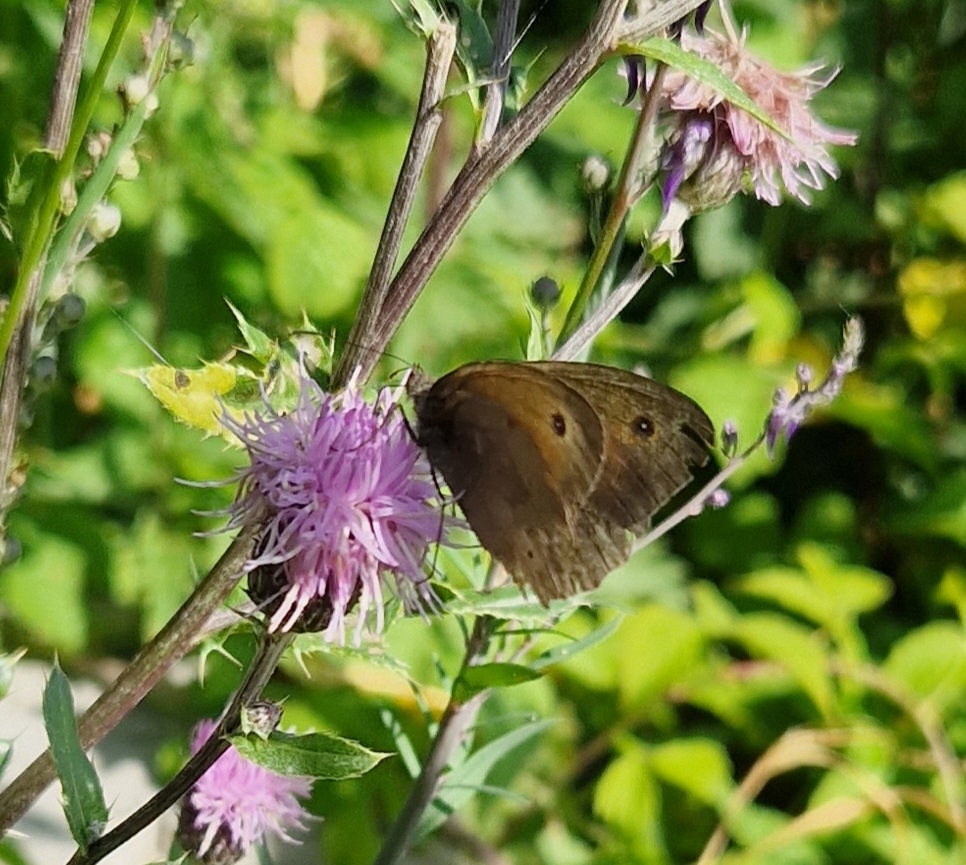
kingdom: Animalia
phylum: Arthropoda
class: Insecta
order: Lepidoptera
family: Nymphalidae
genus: Maniola
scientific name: Maniola jurtina
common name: Græsrandøje
